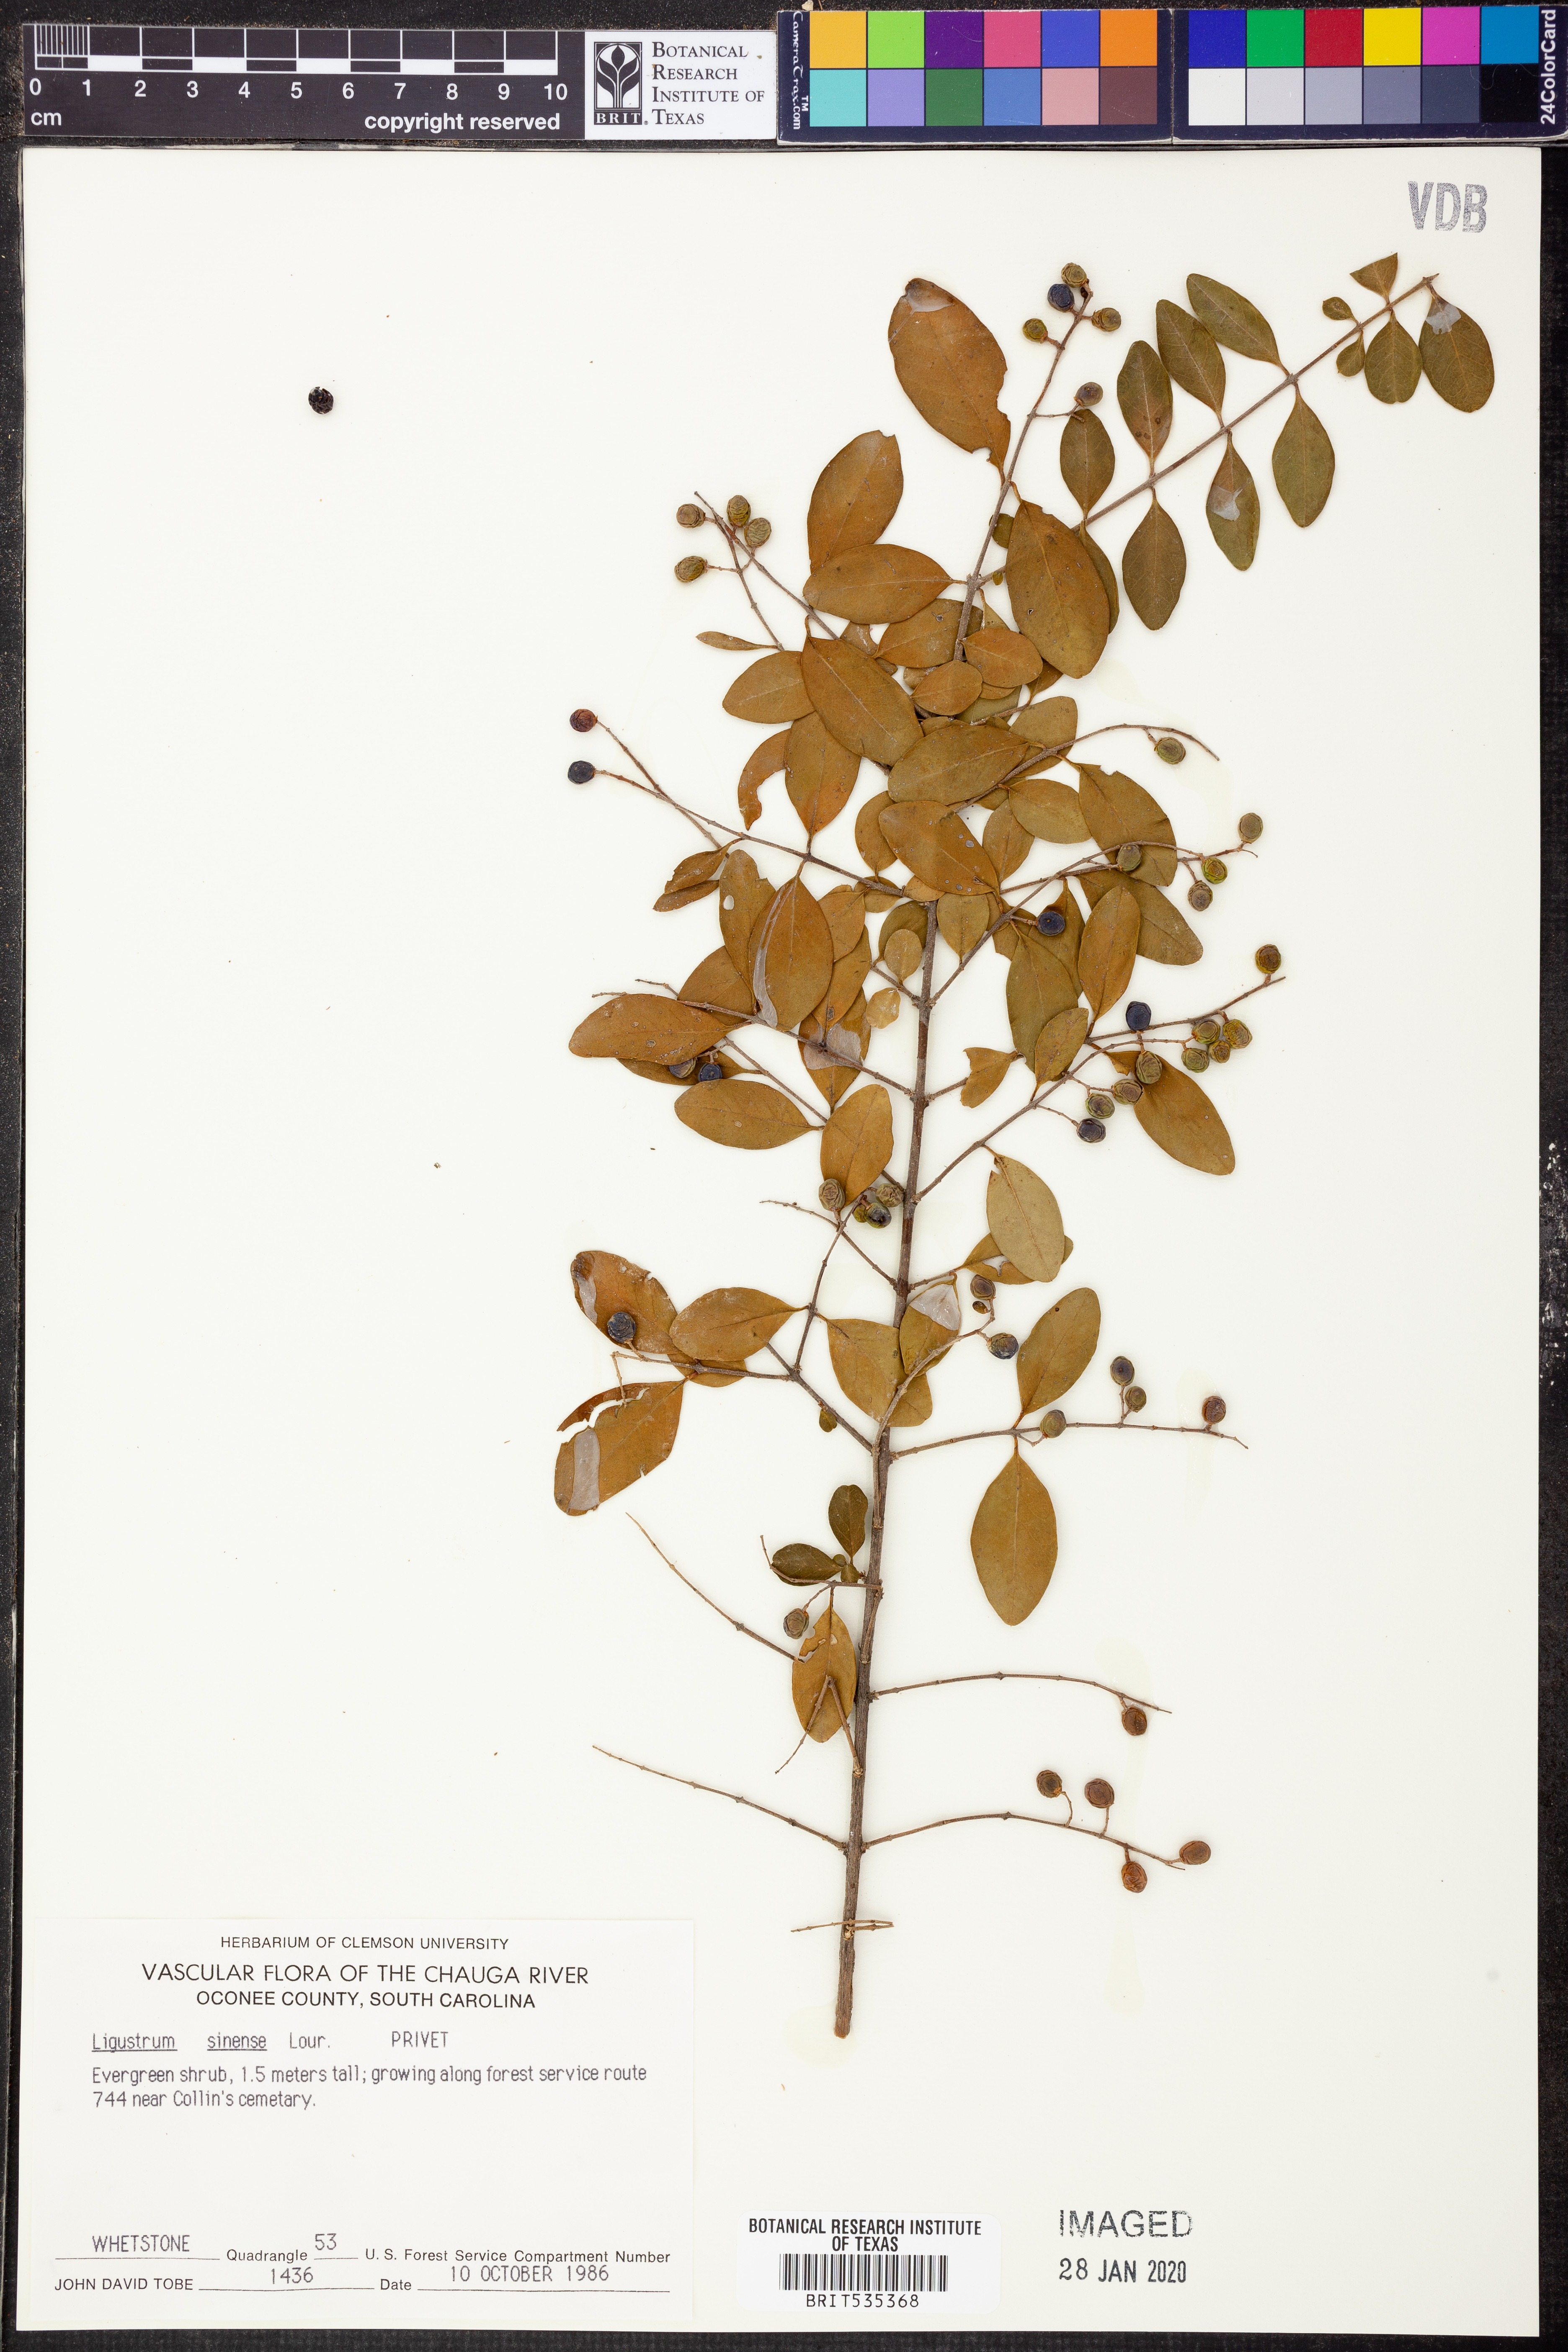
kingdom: Plantae
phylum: Tracheophyta
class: Magnoliopsida
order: Lamiales
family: Oleaceae
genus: Ligustrum
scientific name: Ligustrum sinense
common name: Chinese privet
